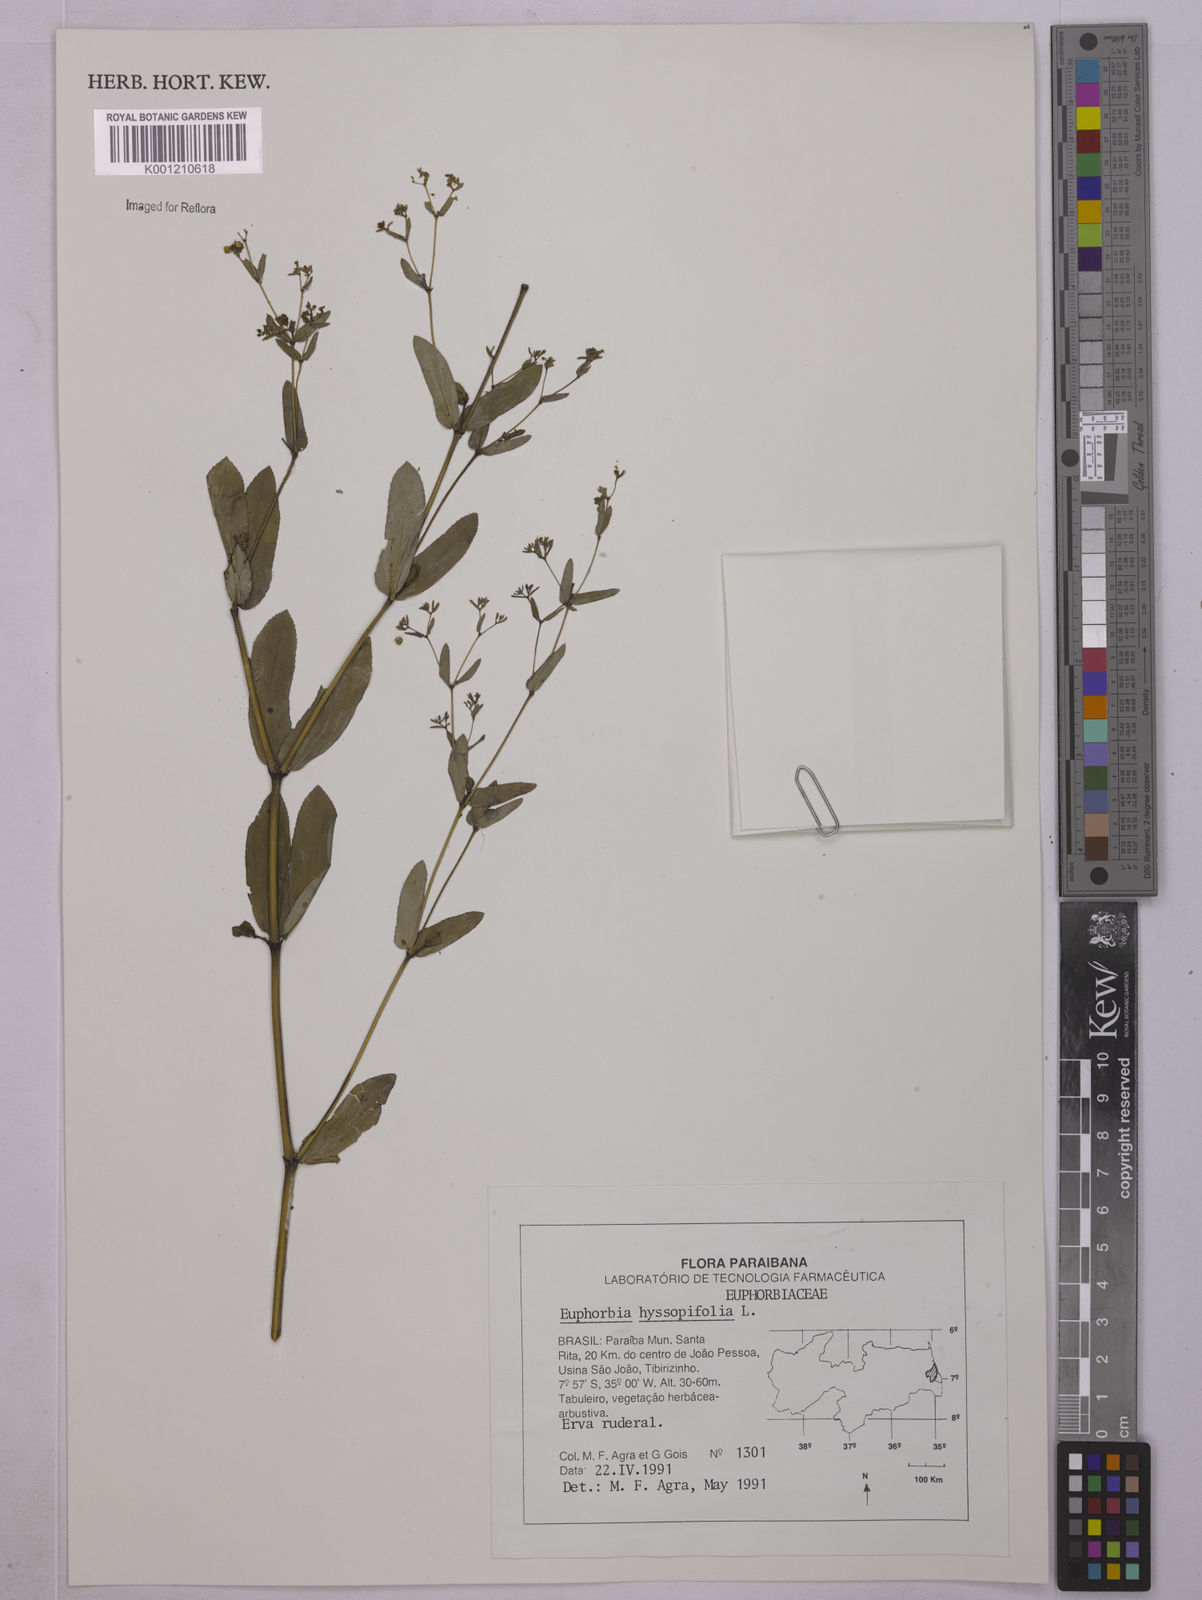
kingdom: Plantae
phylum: Tracheophyta
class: Magnoliopsida
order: Malpighiales
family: Euphorbiaceae
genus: Euphorbia
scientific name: Euphorbia hyssopifolia
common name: Hyssopleaf sandmat
